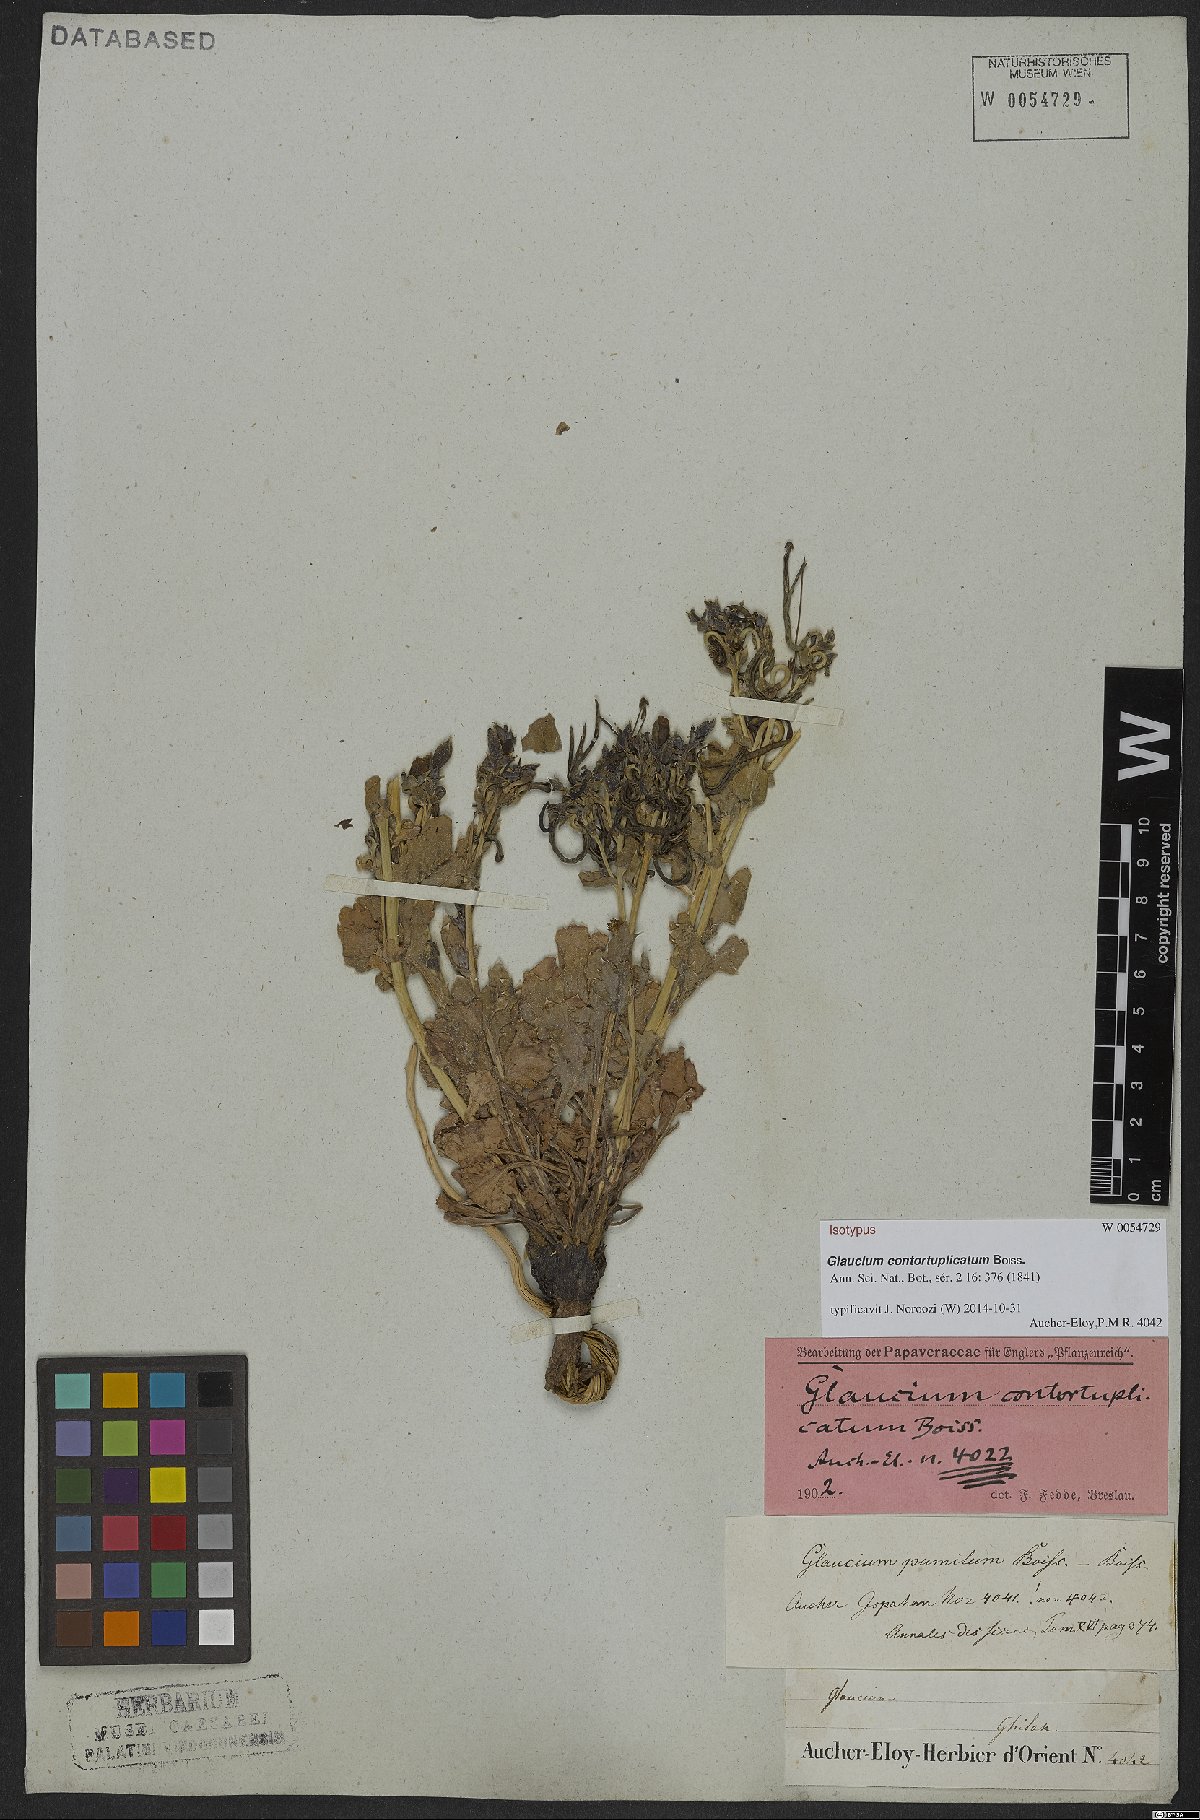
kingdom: Plantae
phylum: Tracheophyta
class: Magnoliopsida
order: Ranunculales
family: Papaveraceae
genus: Glaucium
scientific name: Glaucium contortuplicatum
